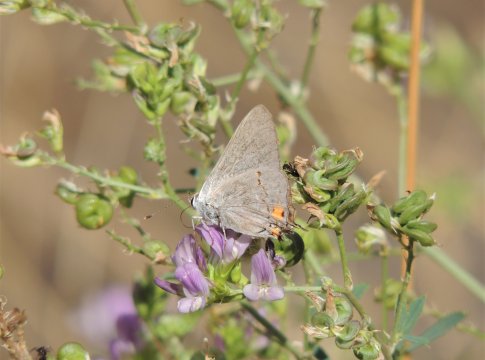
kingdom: Animalia
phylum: Arthropoda
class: Insecta
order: Lepidoptera
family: Lycaenidae
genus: Strymon
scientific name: Strymon melinus
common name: Gray Hairstreak
